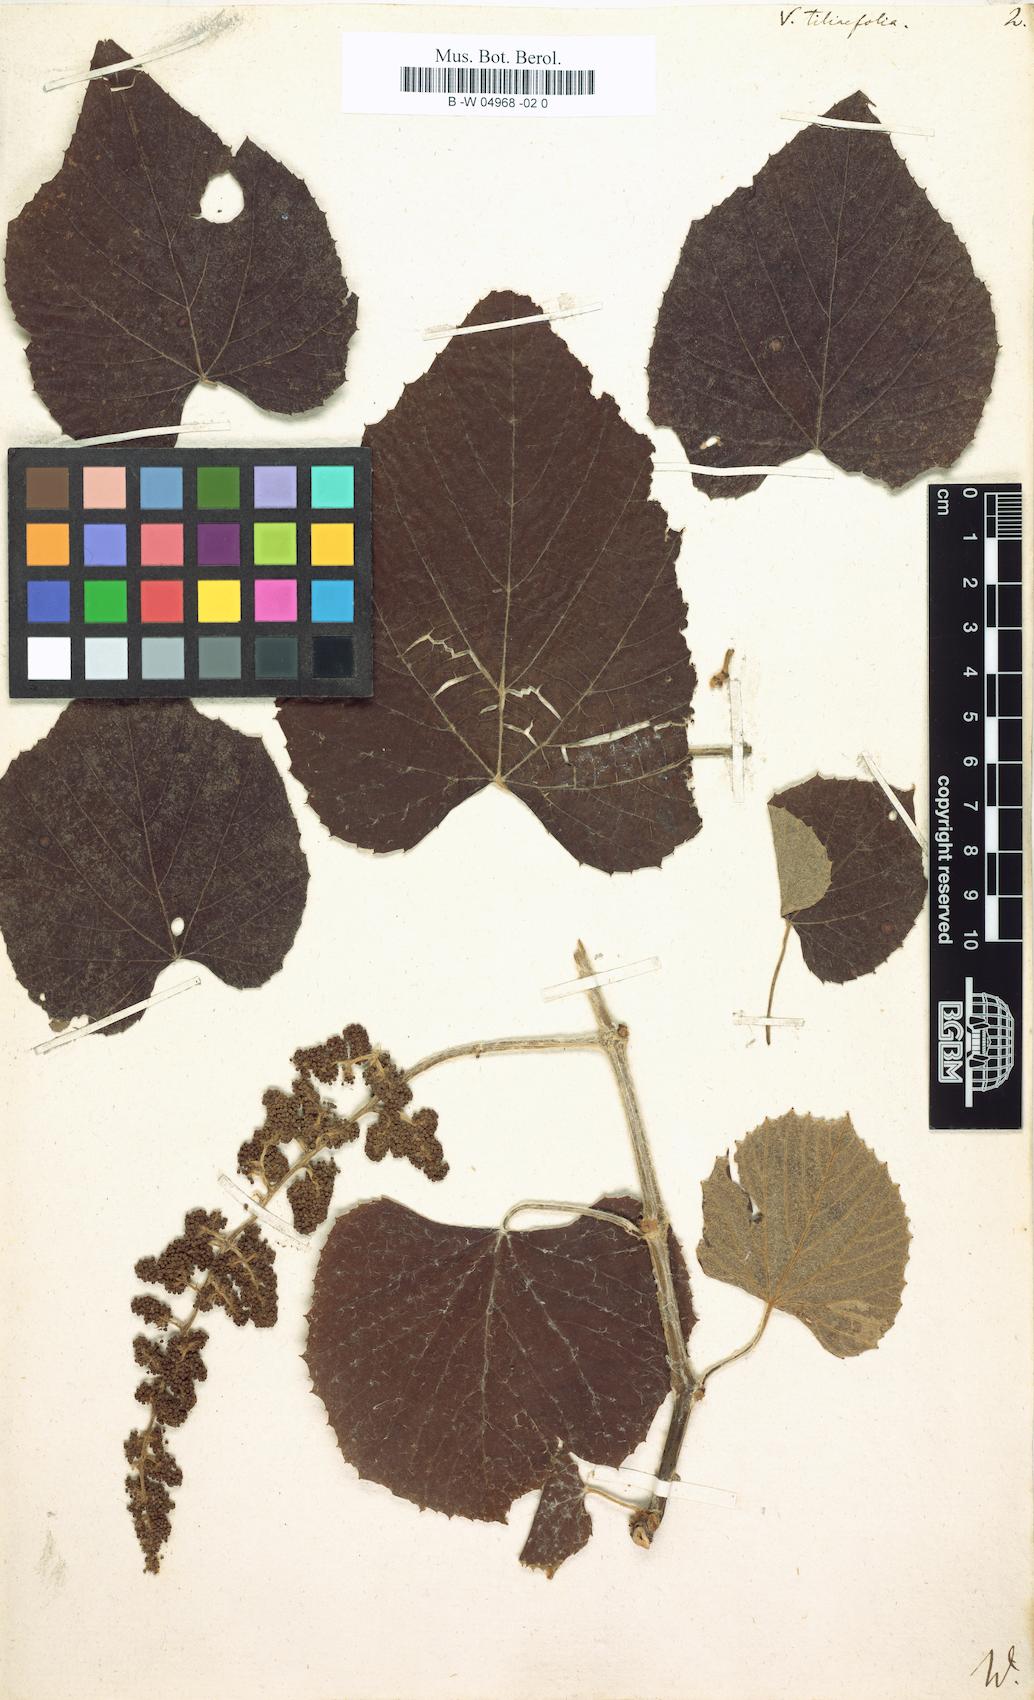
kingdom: Plantae
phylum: Tracheophyta
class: Magnoliopsida
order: Vitales
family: Vitaceae
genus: Vitis
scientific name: Vitis tiliifolia
